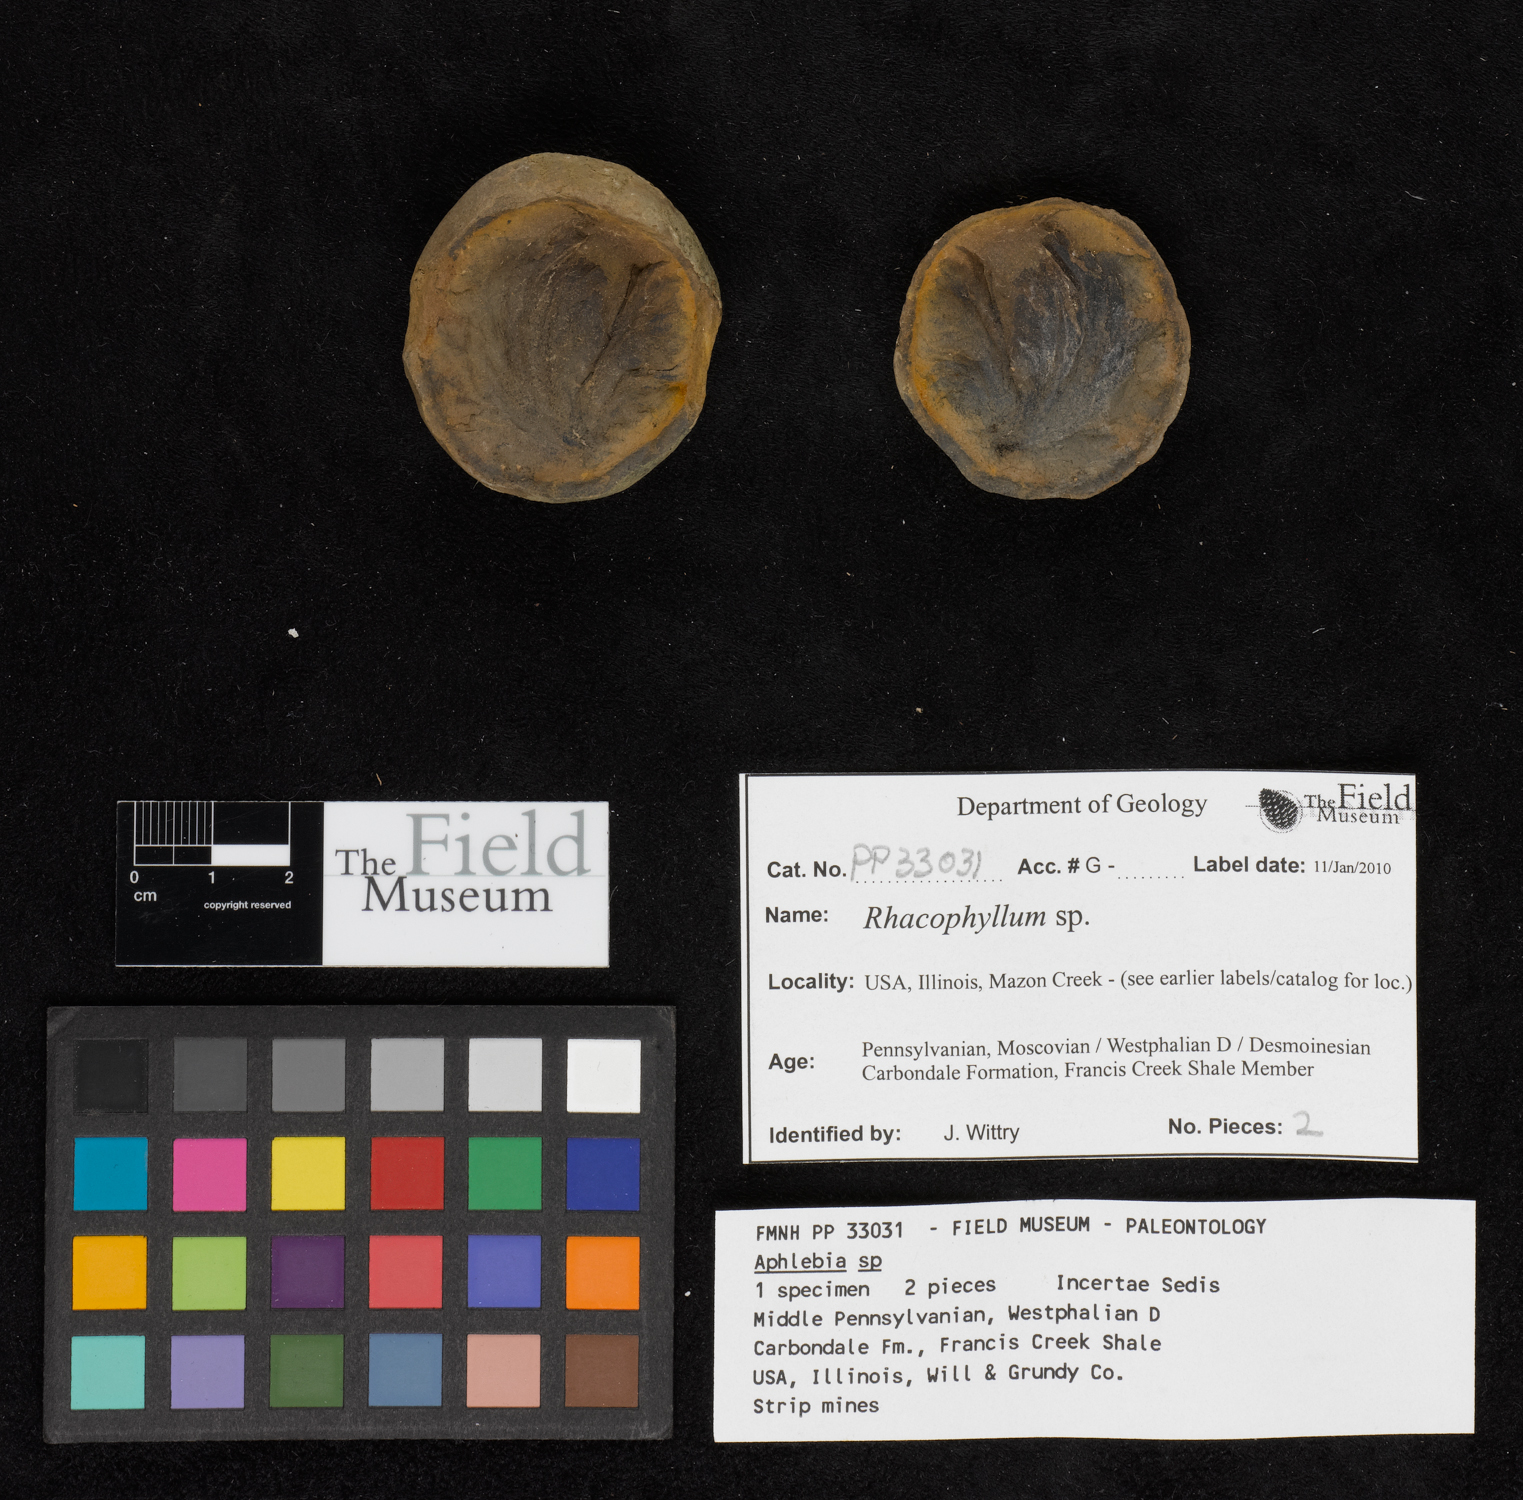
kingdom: Plantae
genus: Rhacophyllum
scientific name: Rhacophyllum
